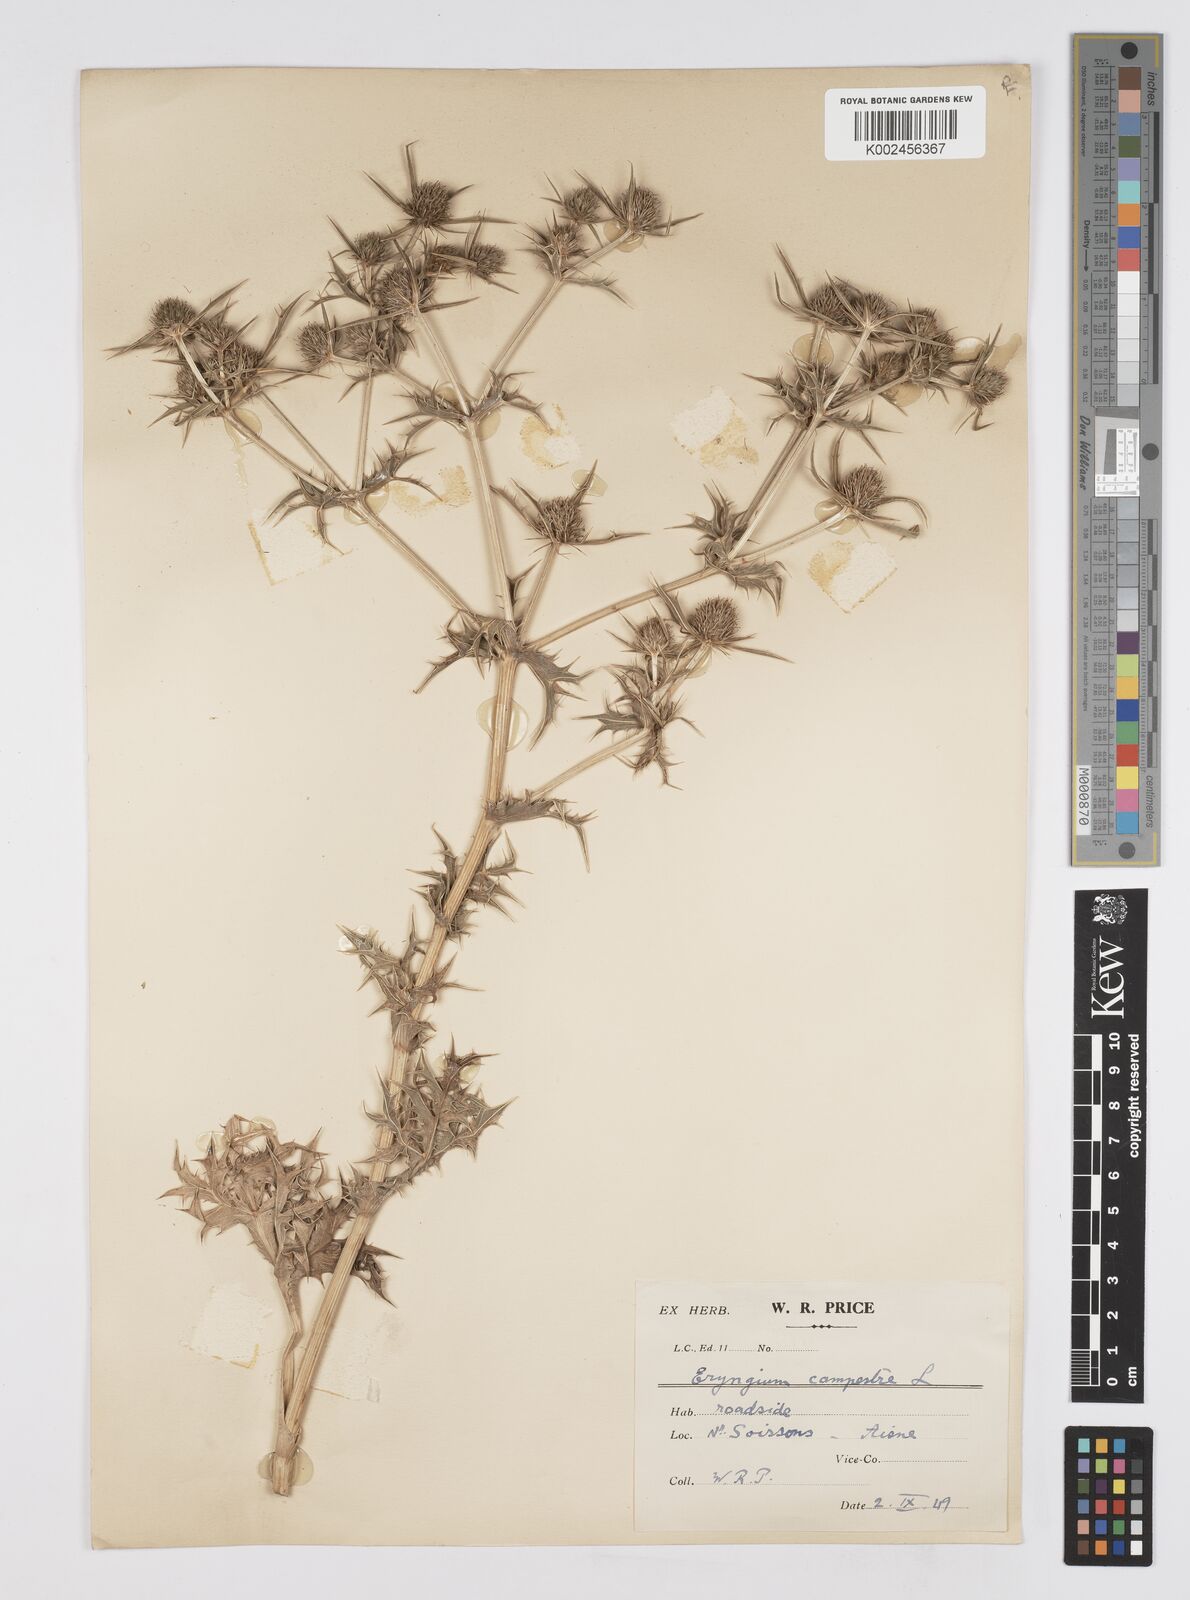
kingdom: Plantae
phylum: Tracheophyta
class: Magnoliopsida
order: Apiales
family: Apiaceae
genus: Eryngium
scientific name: Eryngium campestre
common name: Field eryngo
